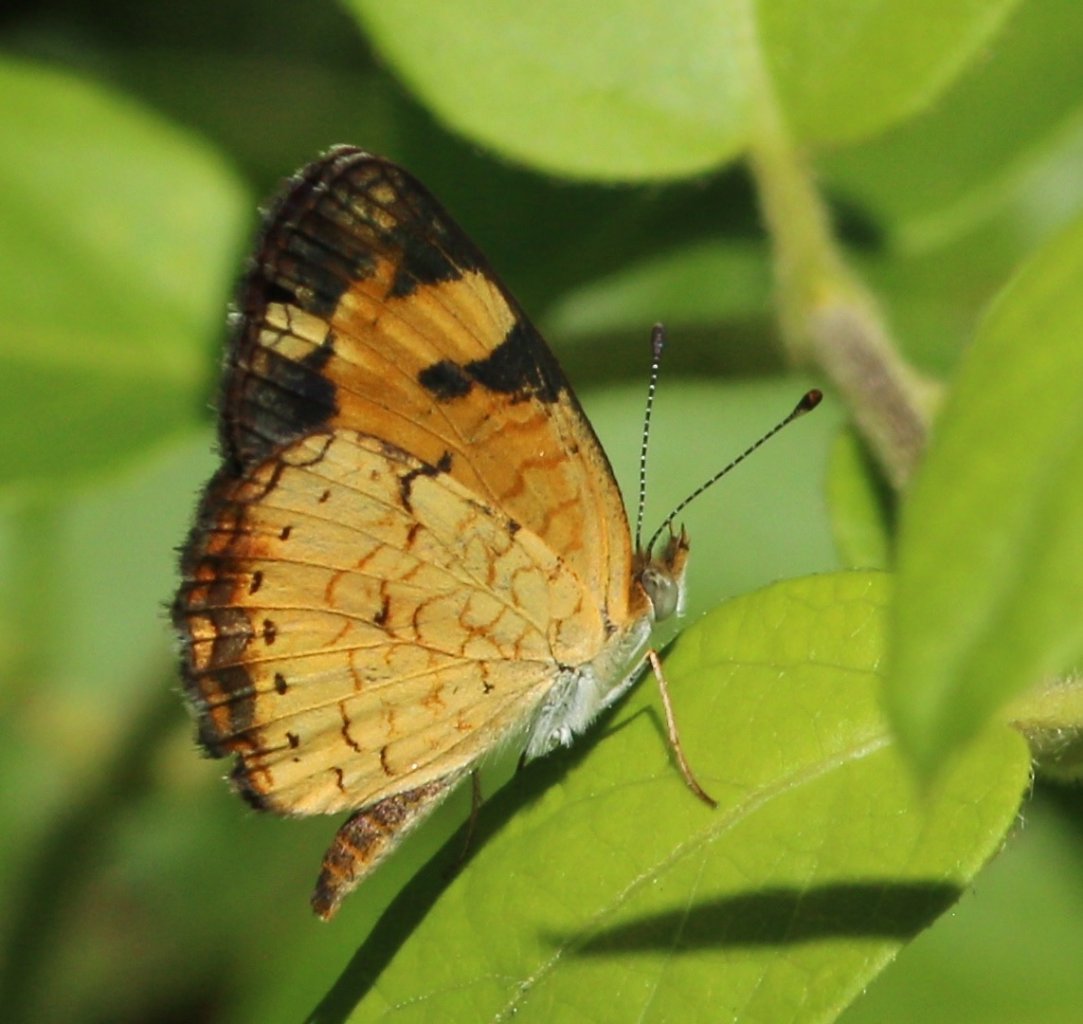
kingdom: Animalia
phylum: Arthropoda
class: Insecta
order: Lepidoptera
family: Nymphalidae
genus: Phyciodes
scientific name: Phyciodes tharos
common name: Pearl Crescent
